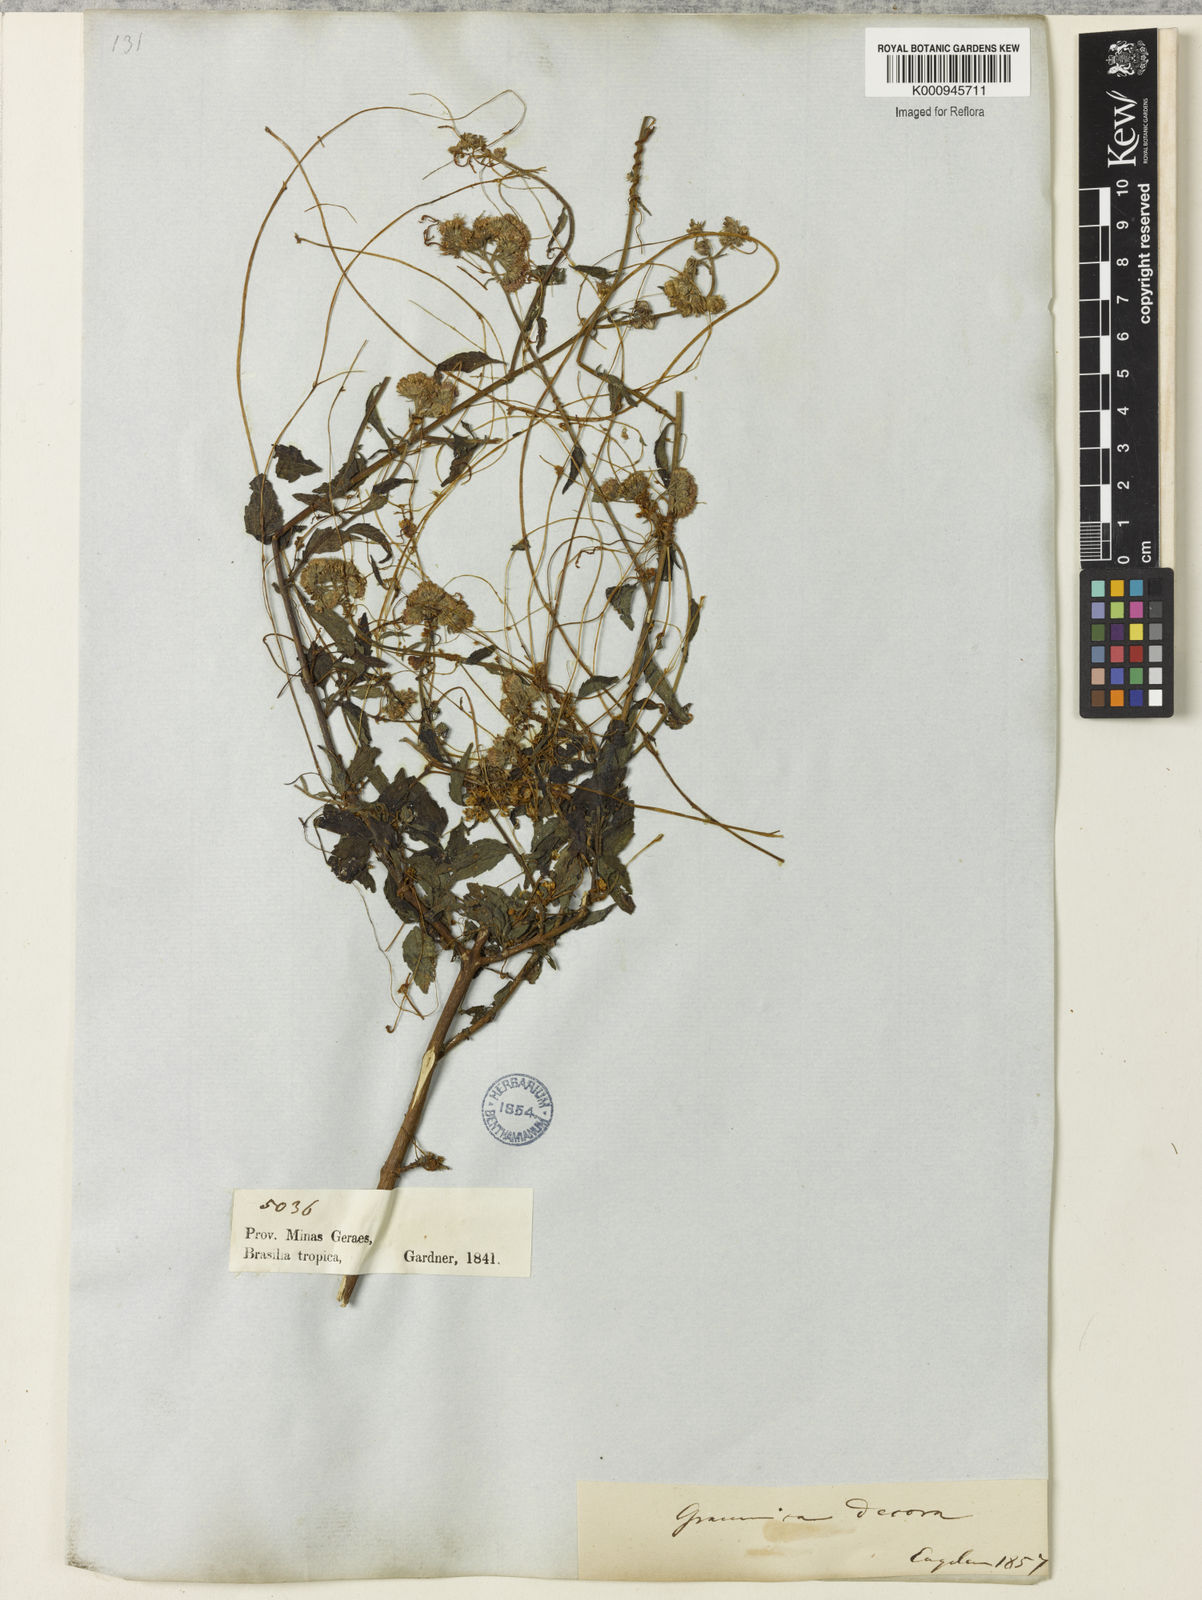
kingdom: Plantae
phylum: Tracheophyta
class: Magnoliopsida
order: Solanales
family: Convolvulaceae
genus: Cuscuta
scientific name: Cuscuta indecora
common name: Large-seed dodder
